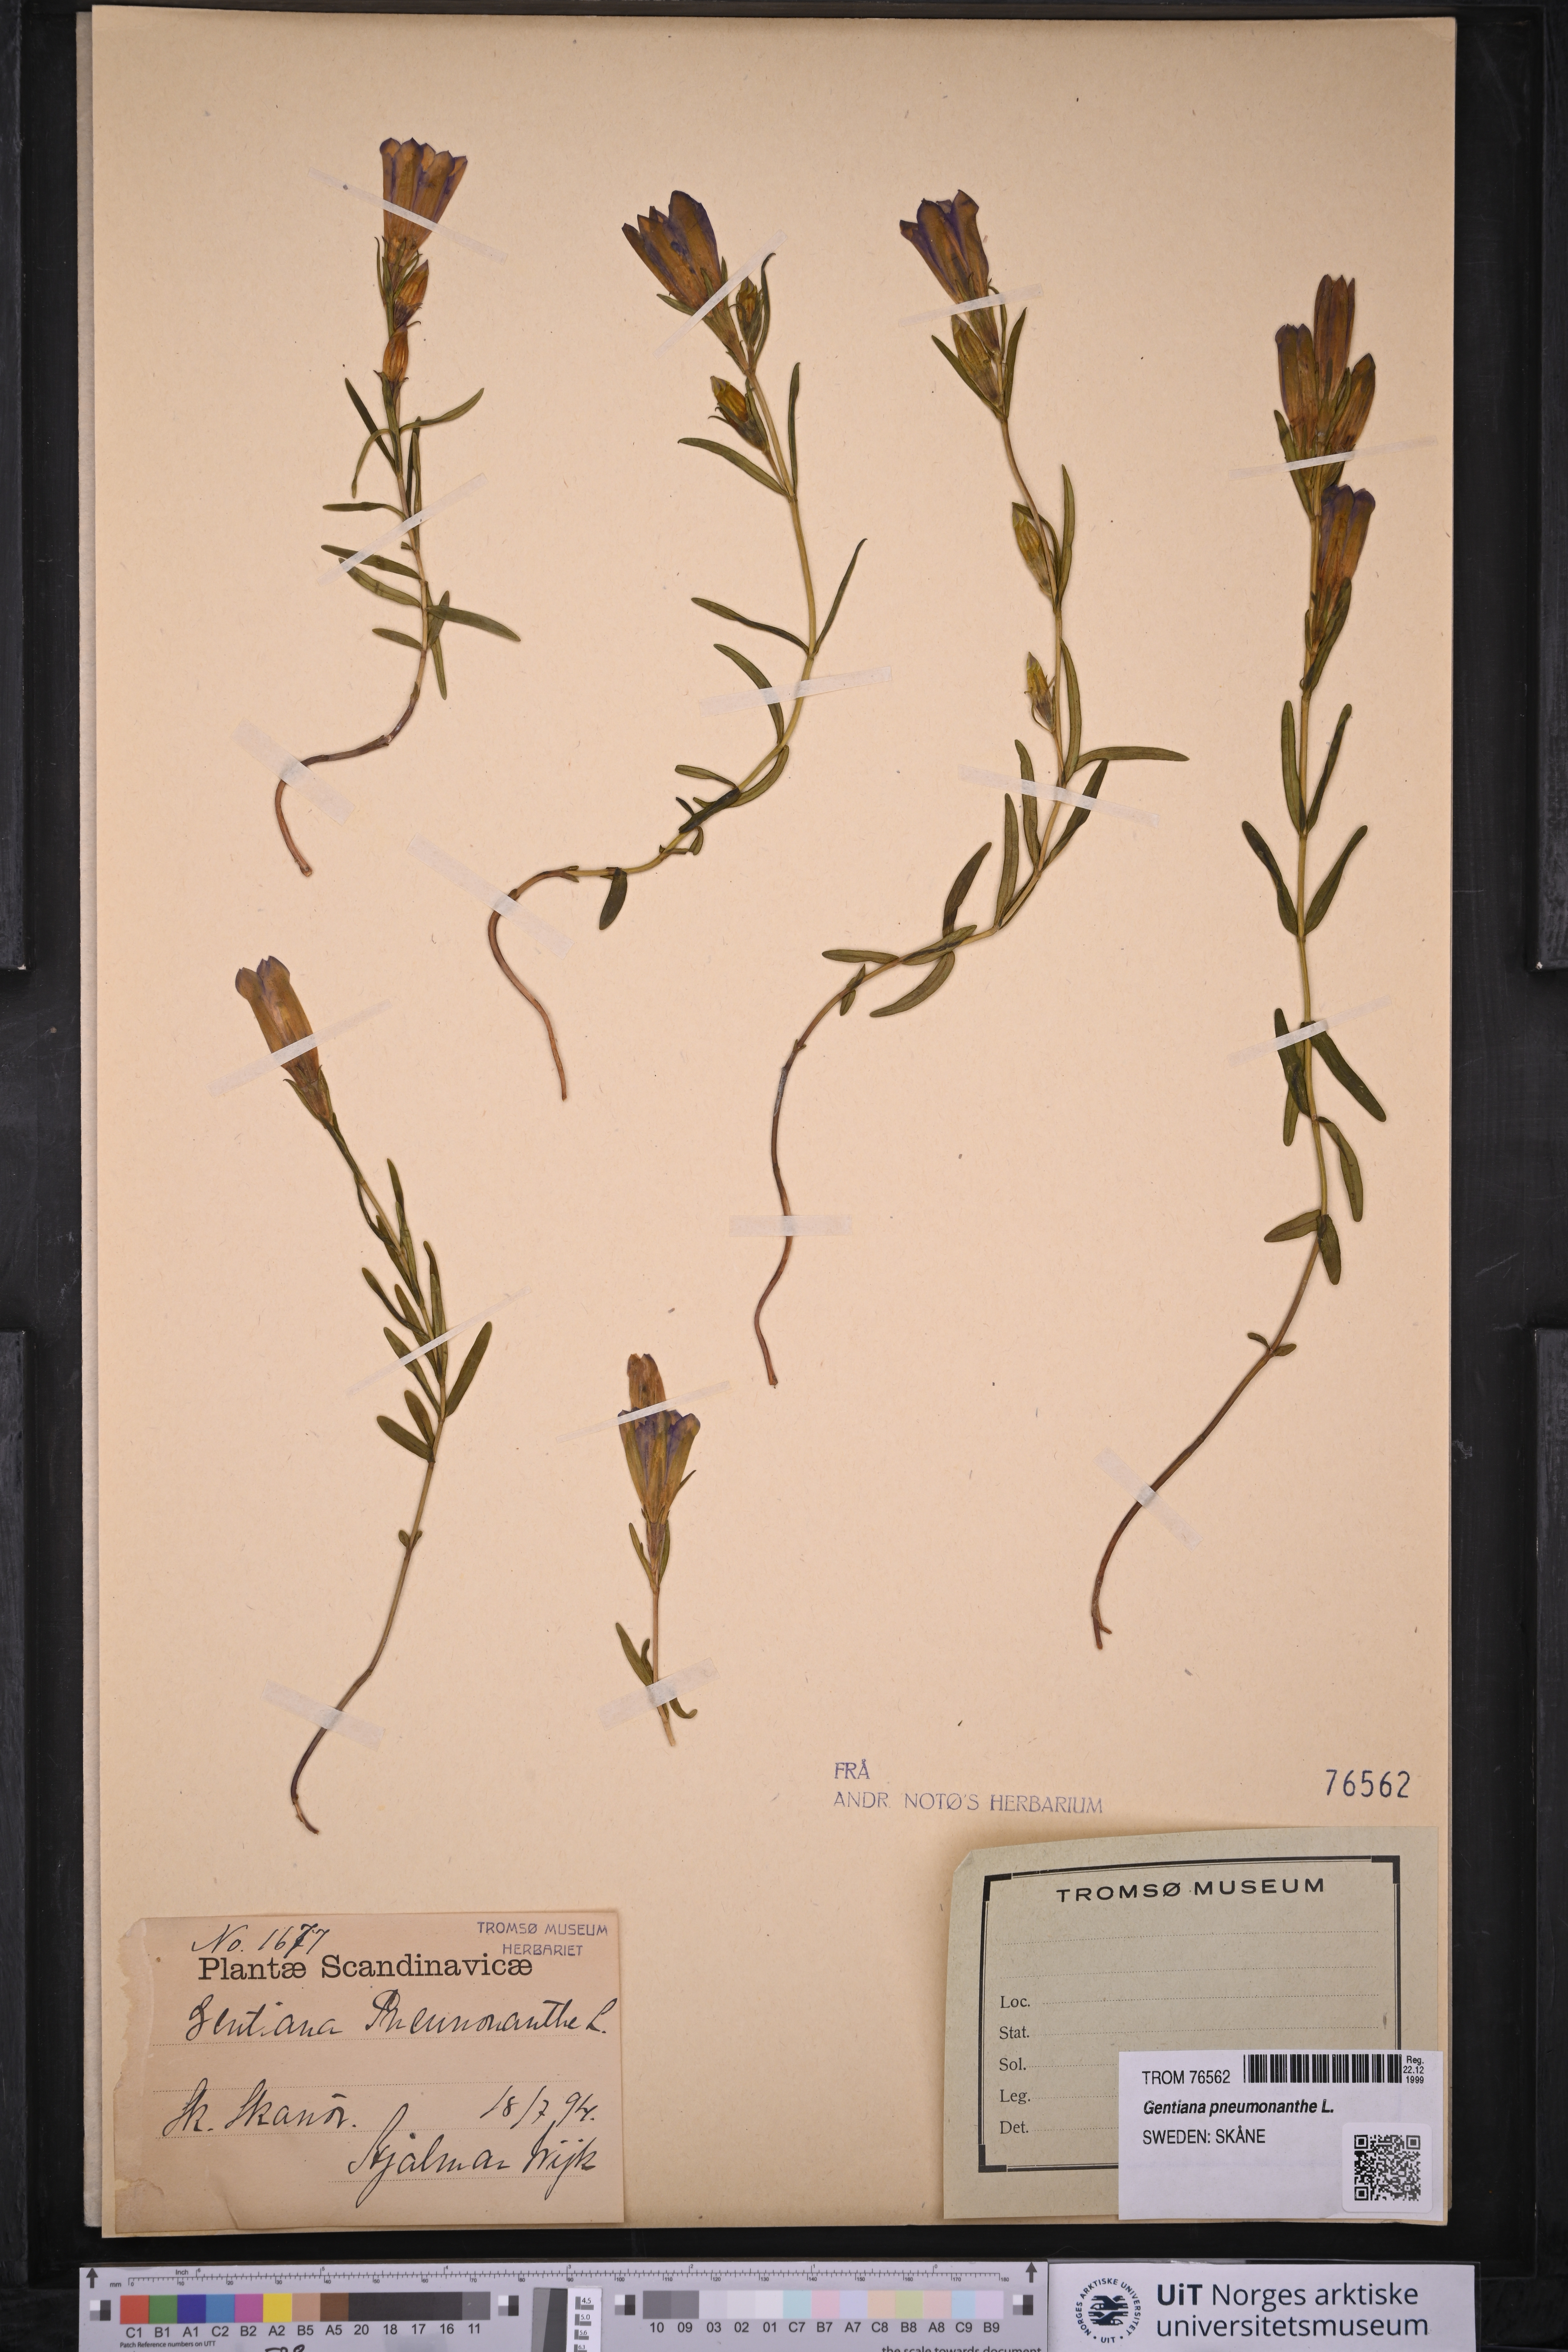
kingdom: Plantae
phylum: Tracheophyta
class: Magnoliopsida
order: Gentianales
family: Gentianaceae
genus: Gentiana
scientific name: Gentiana pneumonanthe
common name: Marsh gentian
